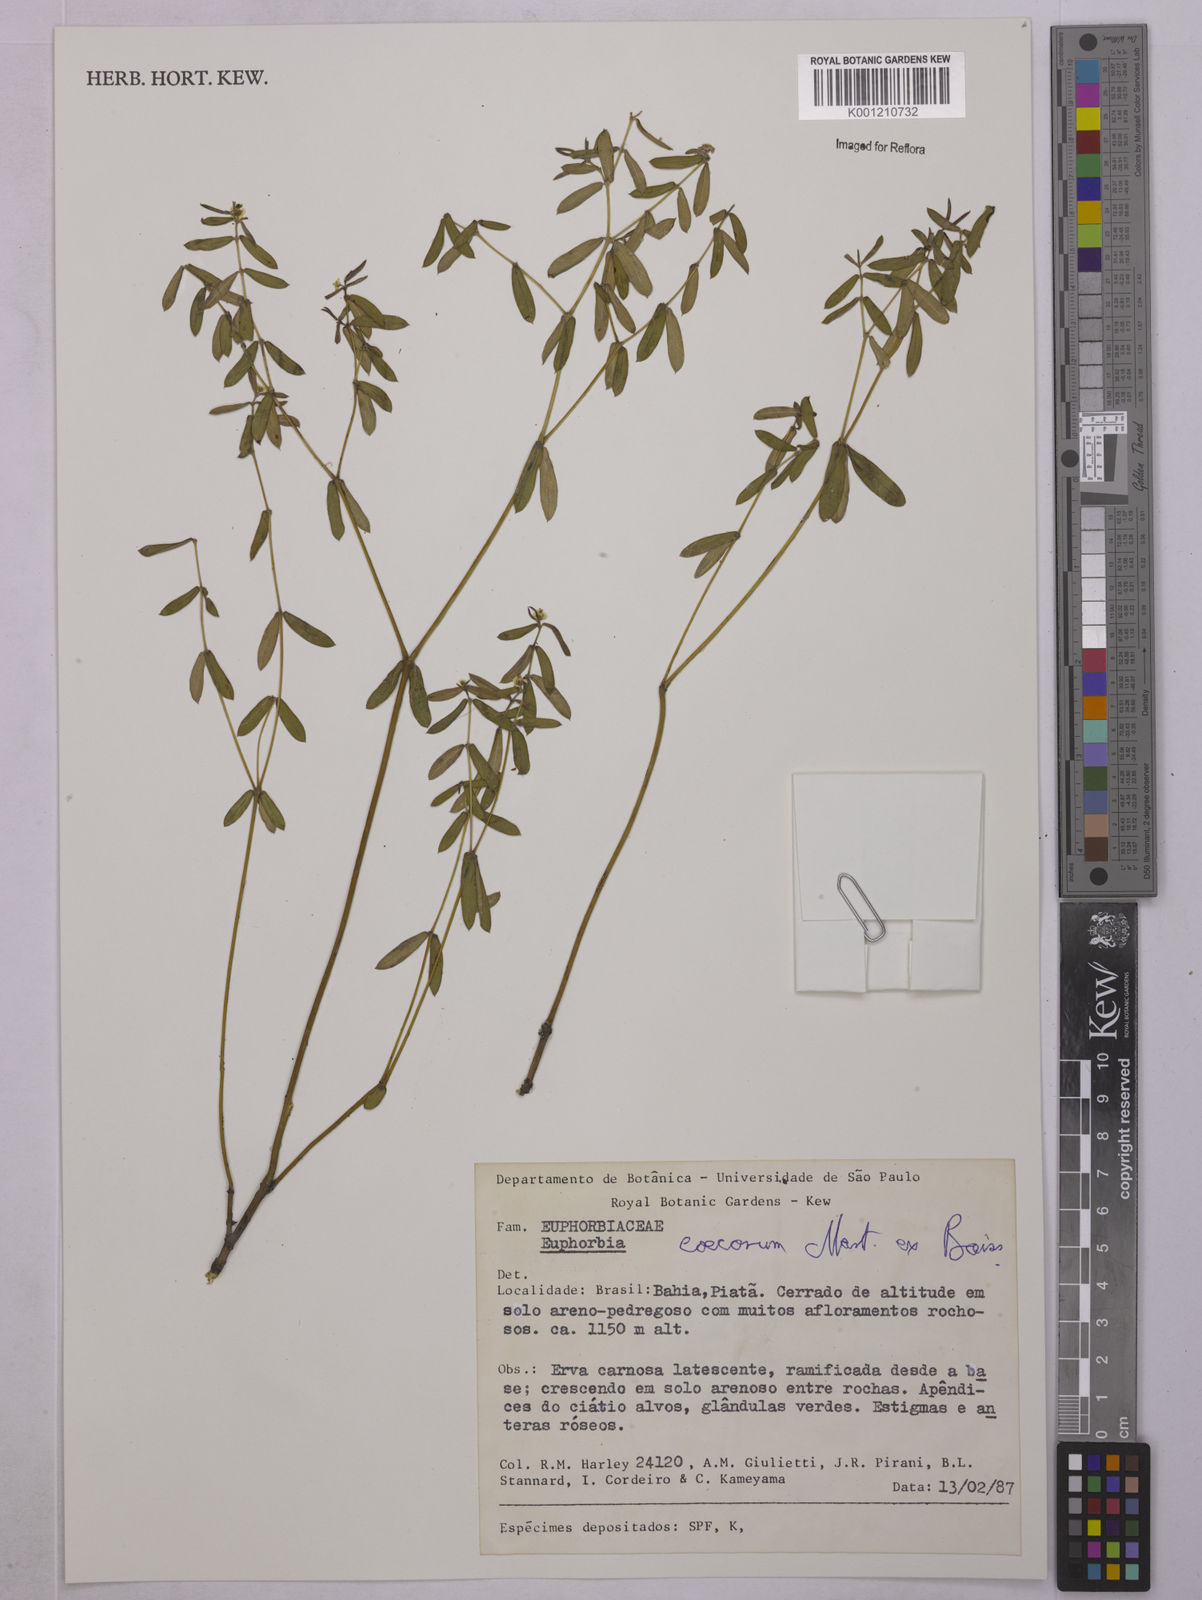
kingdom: Plantae
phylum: Tracheophyta
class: Magnoliopsida
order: Malpighiales
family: Euphorbiaceae
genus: Euphorbia
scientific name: Euphorbia potentilloides
